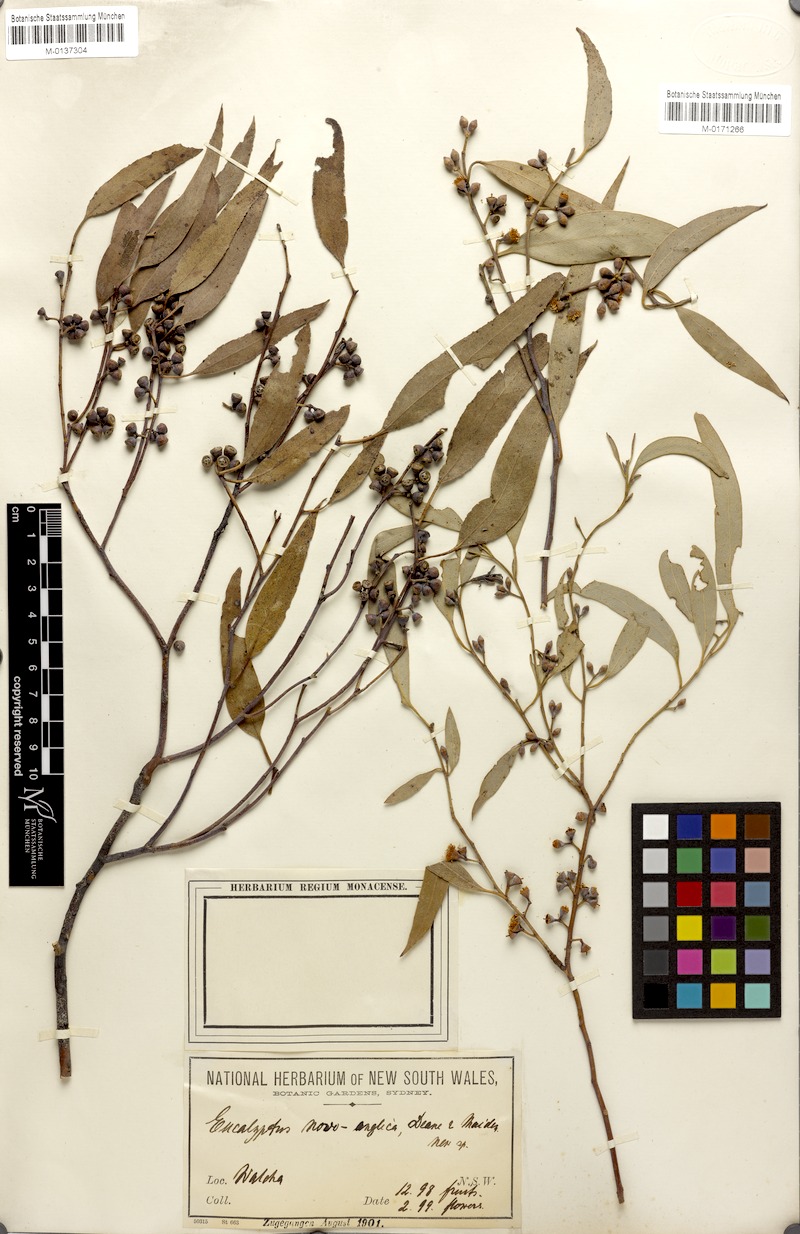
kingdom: Plantae
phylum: Tracheophyta
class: Magnoliopsida
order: Myrtales
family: Myrtaceae
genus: Eucalyptus
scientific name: Eucalyptus nova-anglica
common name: Black peppermint
